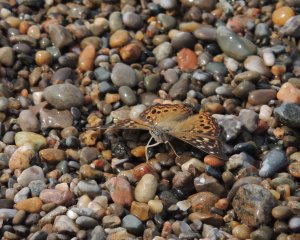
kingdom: Animalia
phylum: Arthropoda
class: Insecta
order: Lepidoptera
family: Nymphalidae
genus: Asterocampa
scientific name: Asterocampa celtis
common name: Hackberry Emperor
